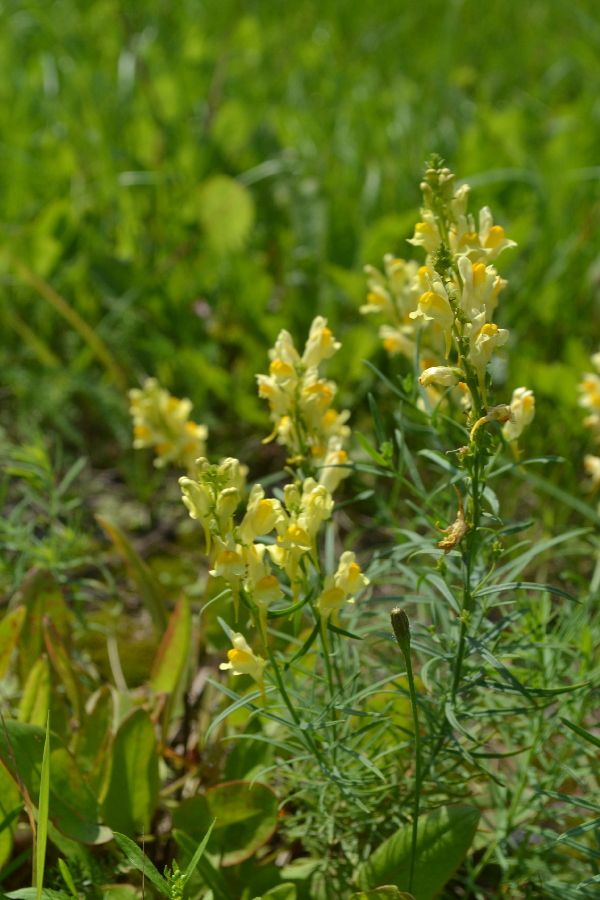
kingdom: Plantae
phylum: Tracheophyta
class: Magnoliopsida
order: Lamiales
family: Plantaginaceae
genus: Linaria
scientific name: Linaria vulgaris
